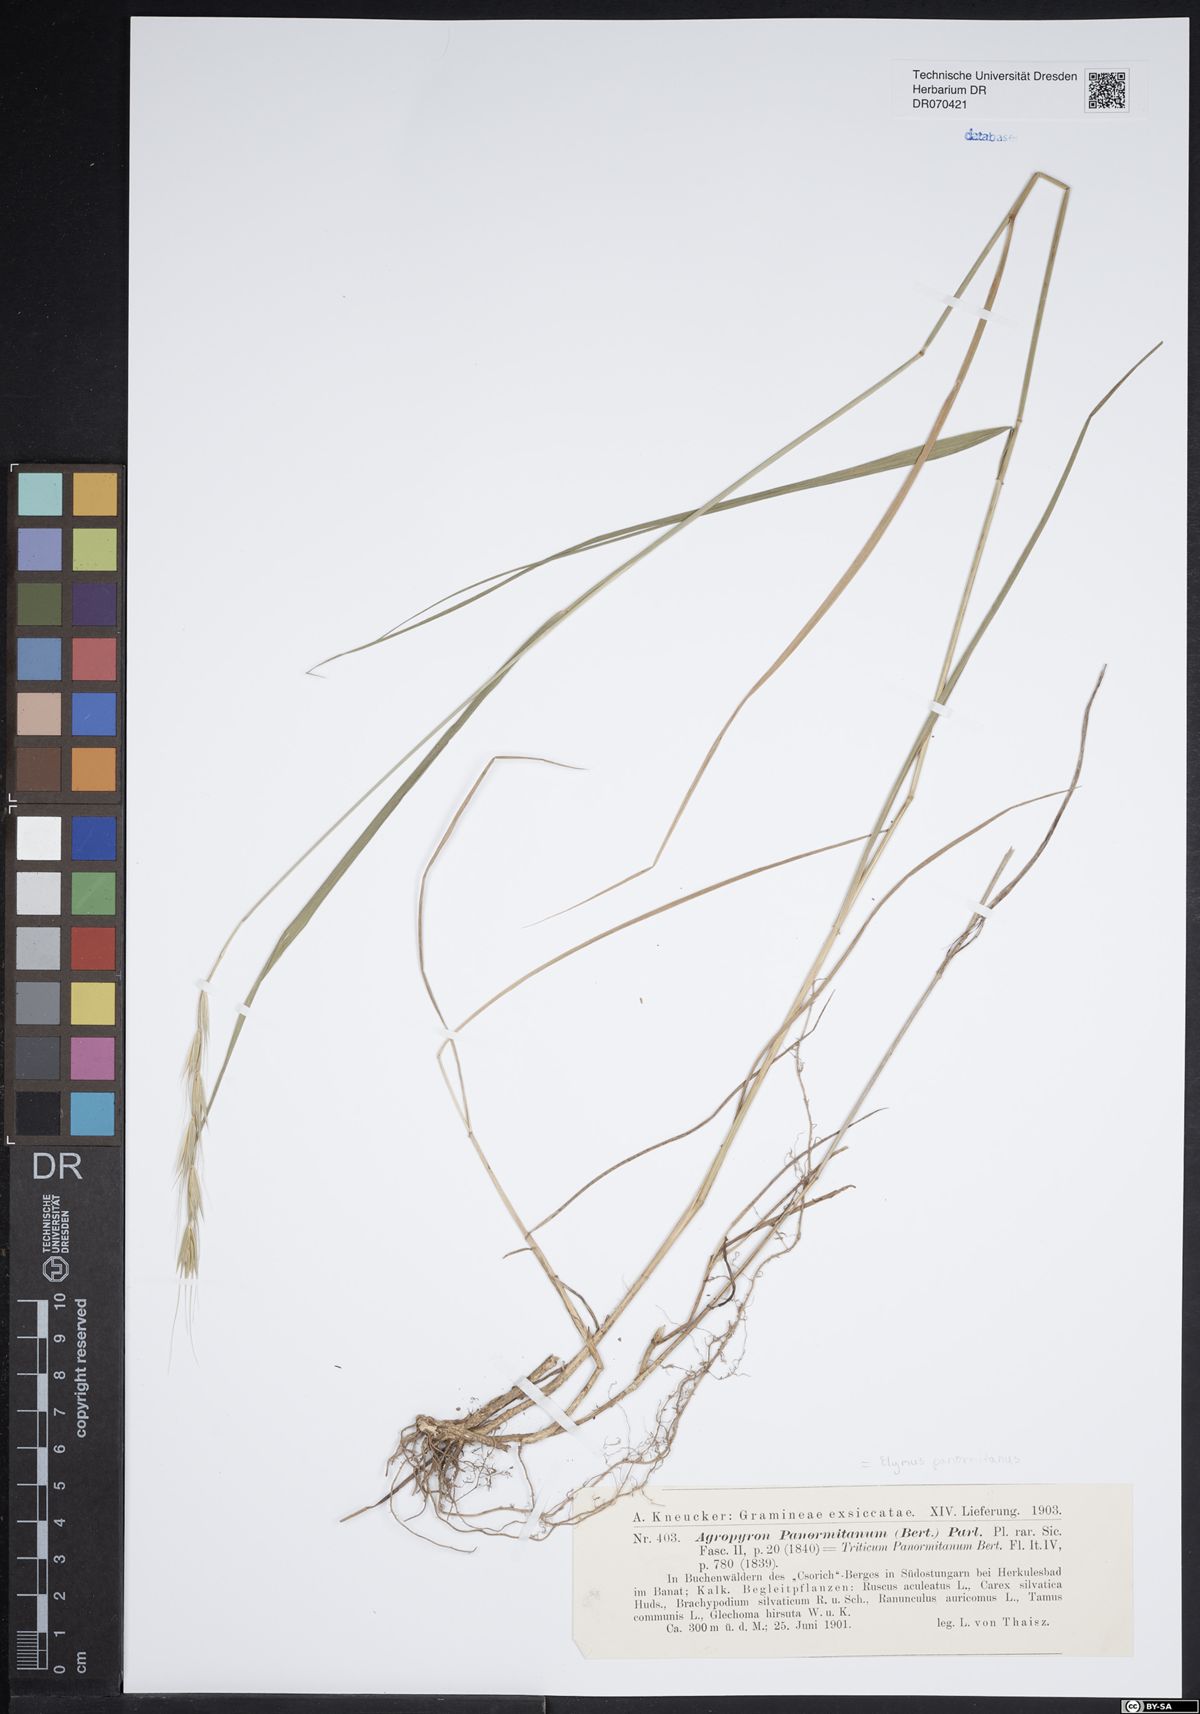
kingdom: Plantae
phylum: Tracheophyta
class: Liliopsida
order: Poales
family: Poaceae
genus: Elymus
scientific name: Elymus panormitanus
